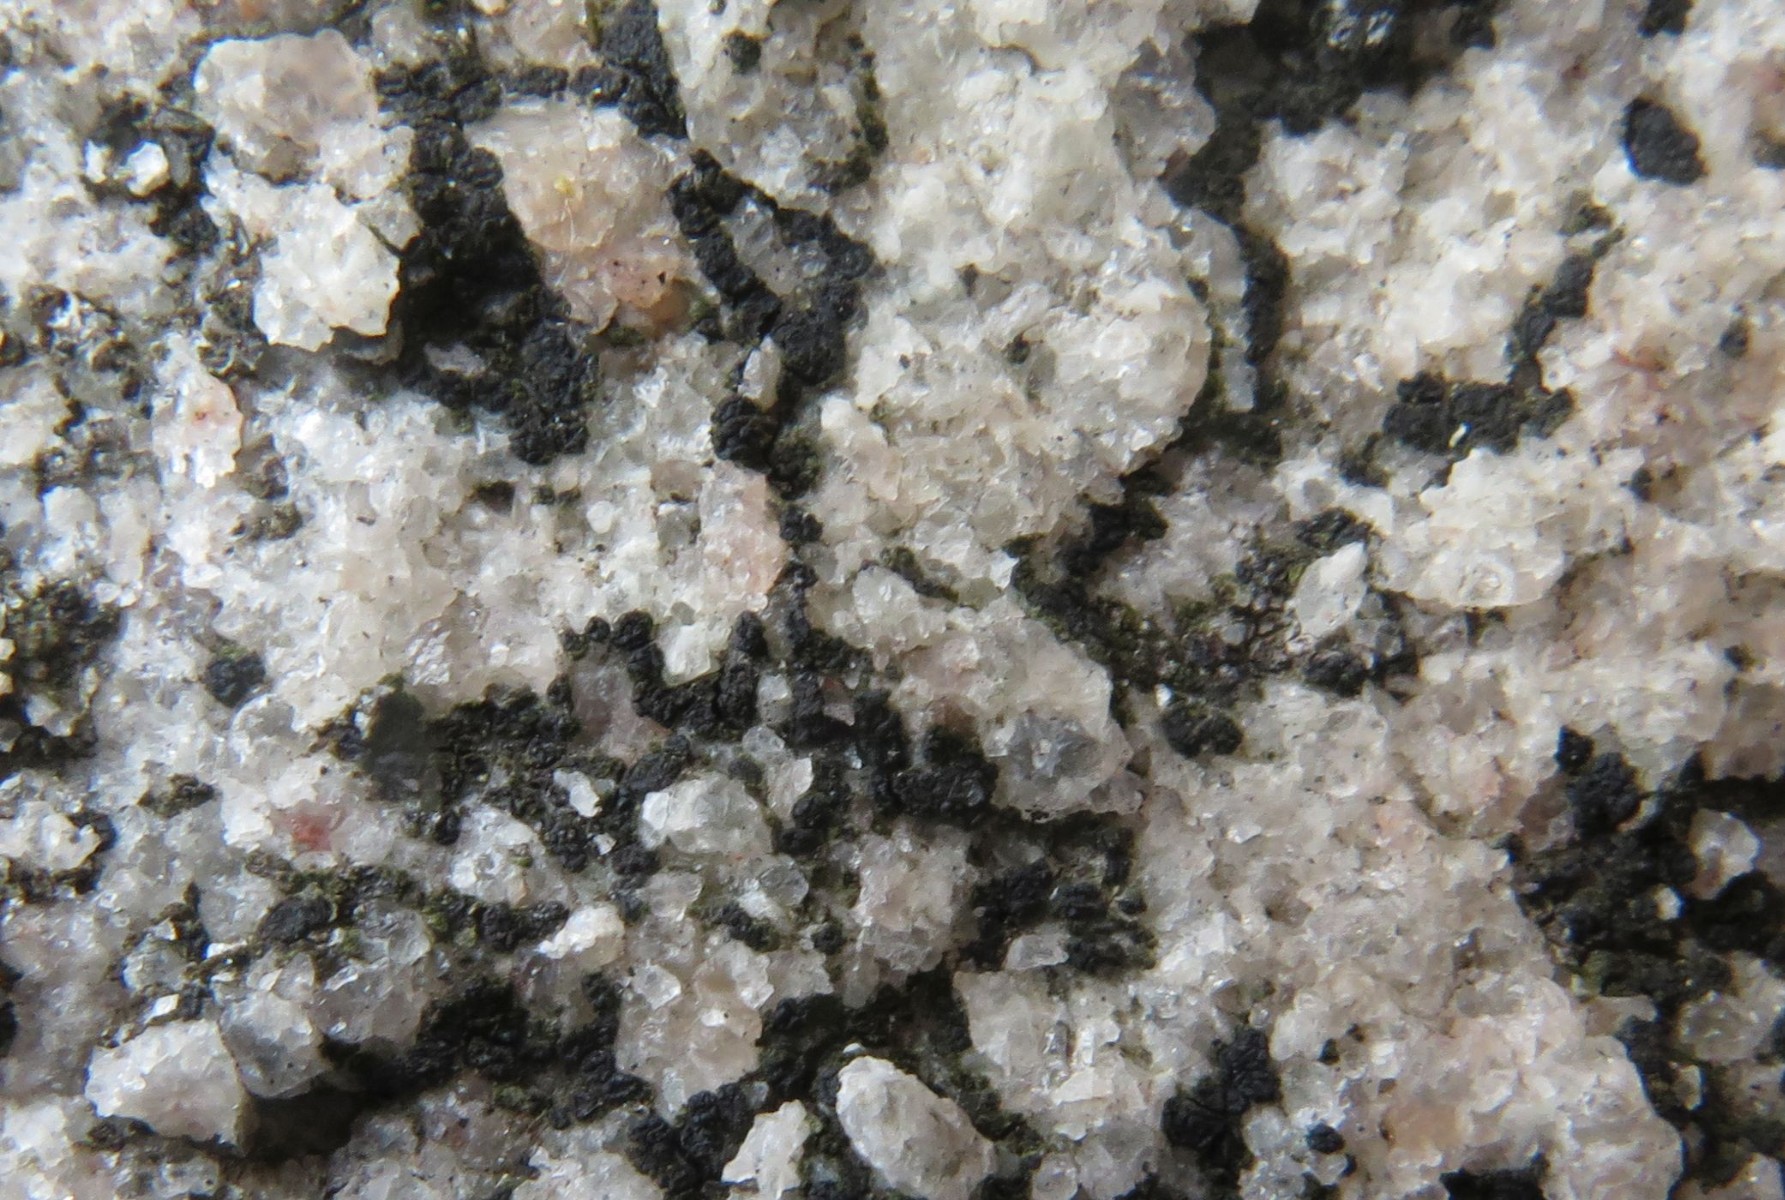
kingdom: Fungi
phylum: Ascomycota
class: Lecanoromycetes
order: Acarosporales
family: Acarosporaceae
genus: Acarospora
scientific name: Acarospora privigna
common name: sort foldekantlav
